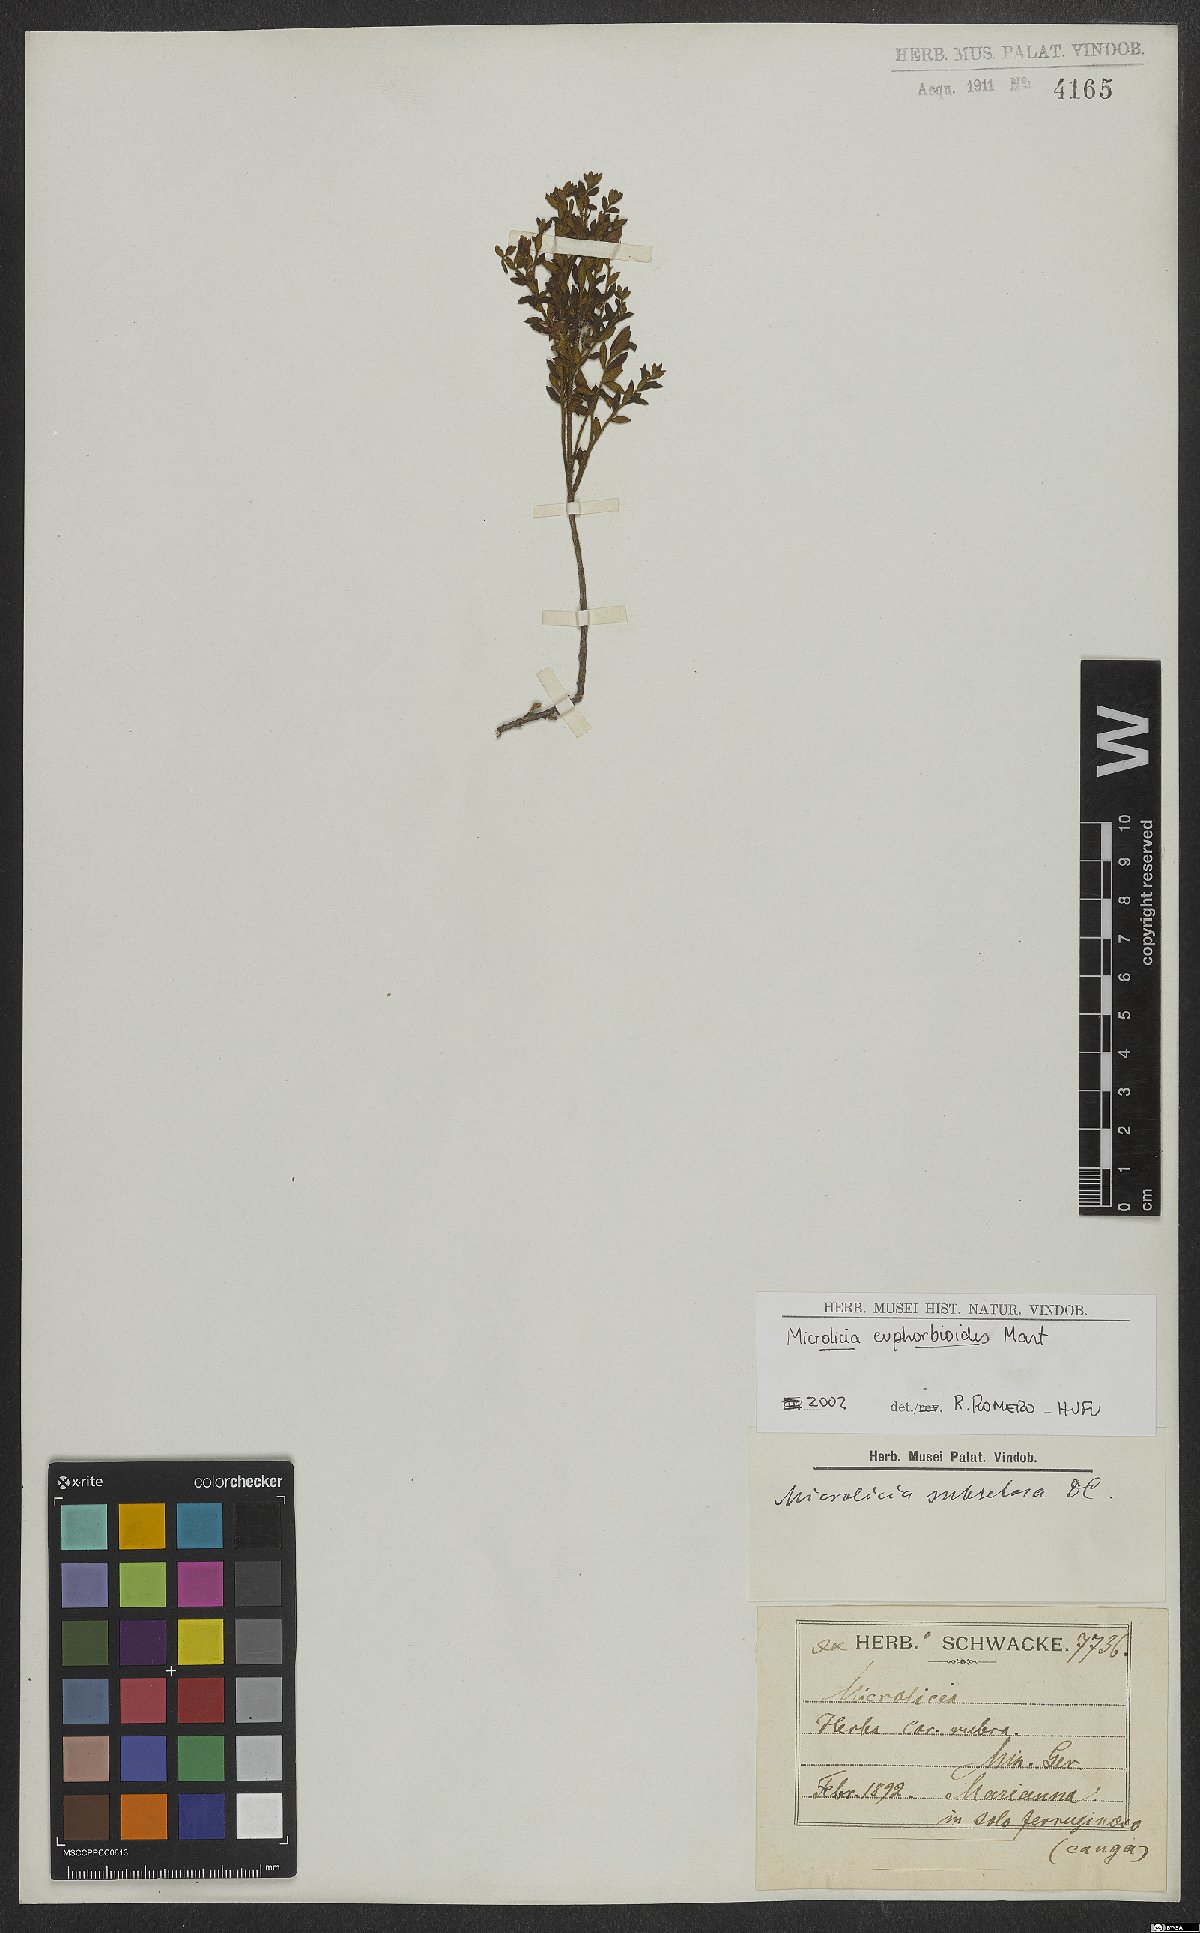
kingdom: Plantae
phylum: Tracheophyta
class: Magnoliopsida
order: Myrtales
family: Melastomataceae
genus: Microlicia
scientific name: Microlicia euphorbioides
